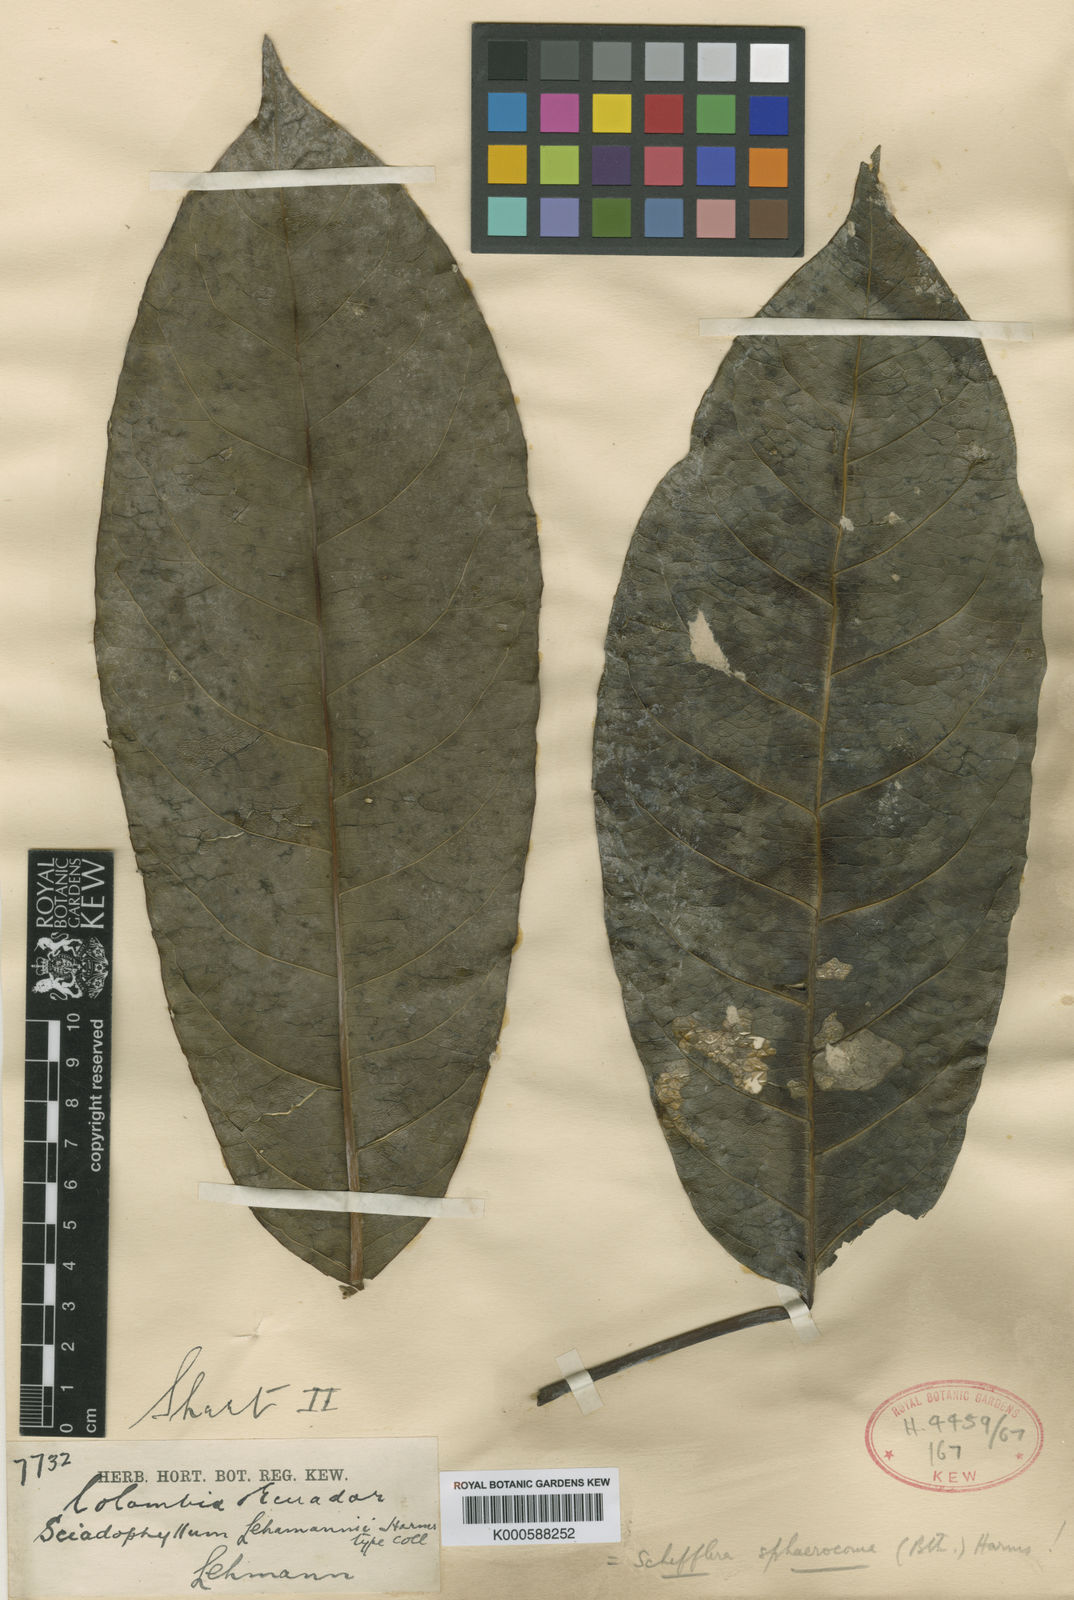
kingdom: Plantae
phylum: Tracheophyta
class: Magnoliopsida
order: Apiales
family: Araliaceae
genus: Sciodaphyllum
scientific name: Sciodaphyllum sphaerocoma
